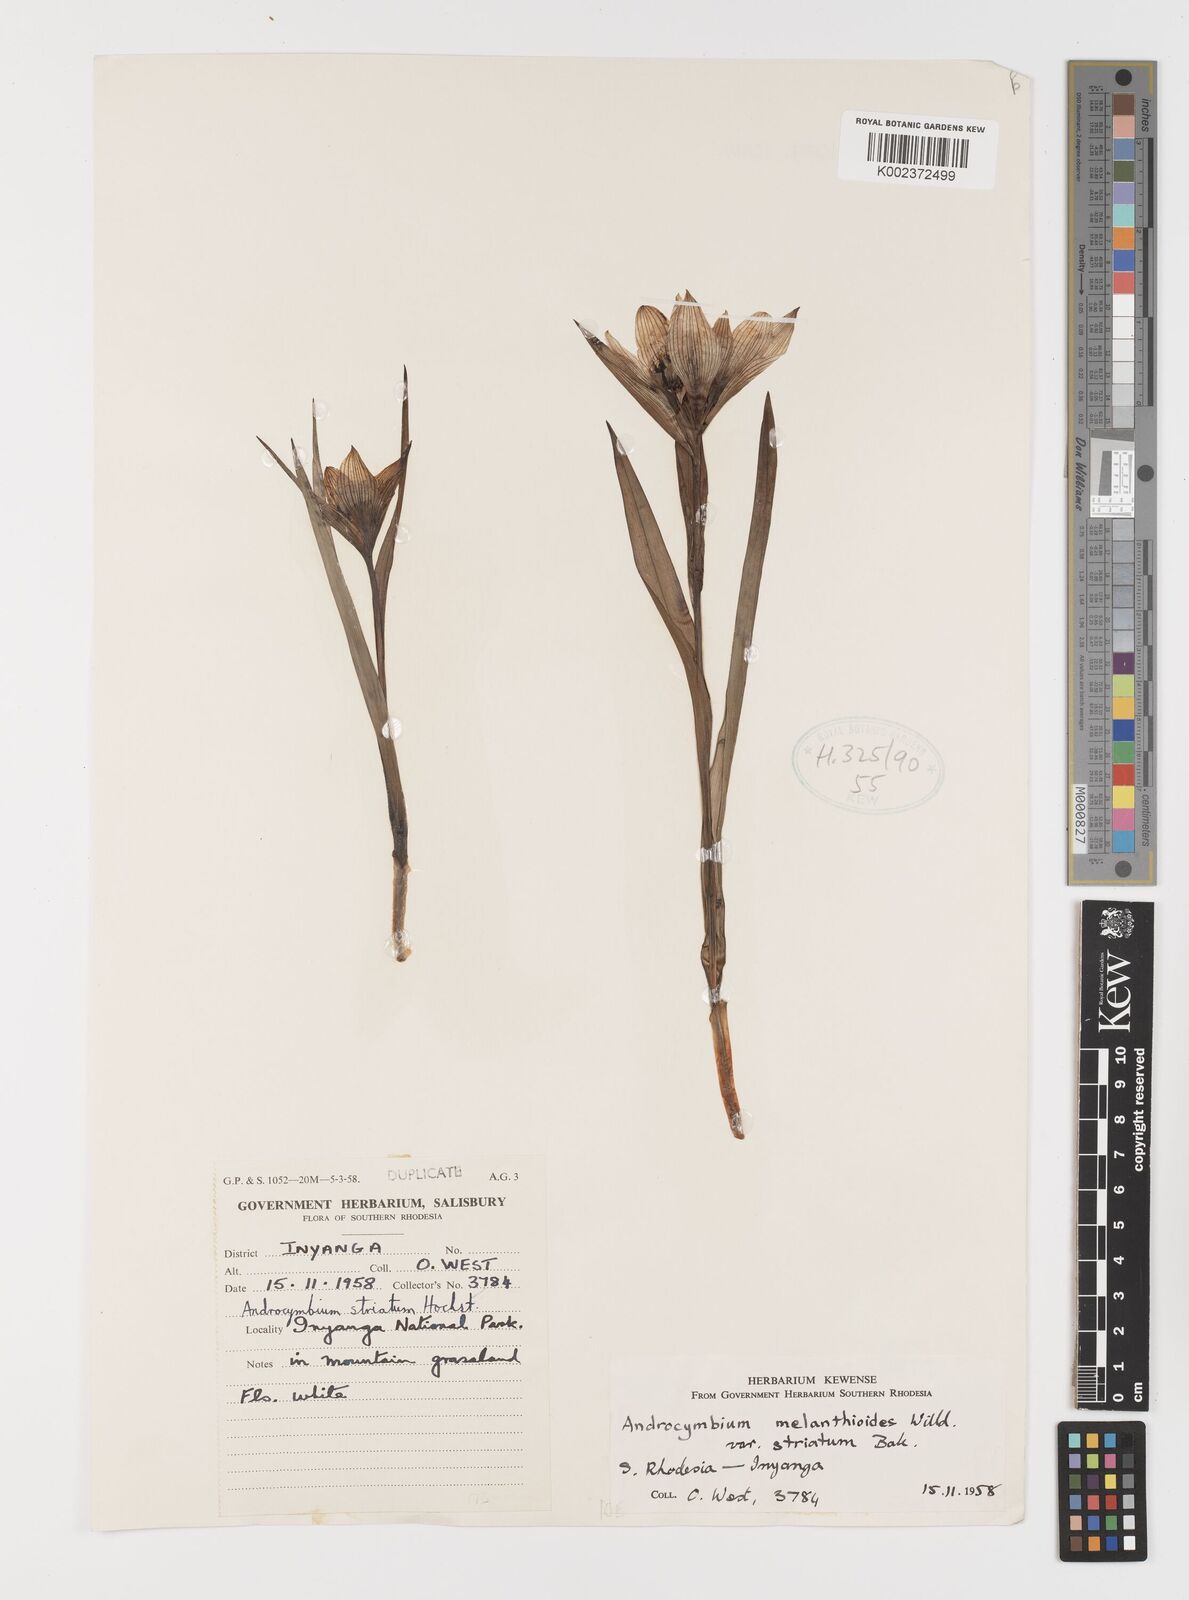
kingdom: Plantae
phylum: Tracheophyta
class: Liliopsida
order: Liliales
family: Colchicaceae
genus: Colchicum
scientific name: Colchicum striatum
